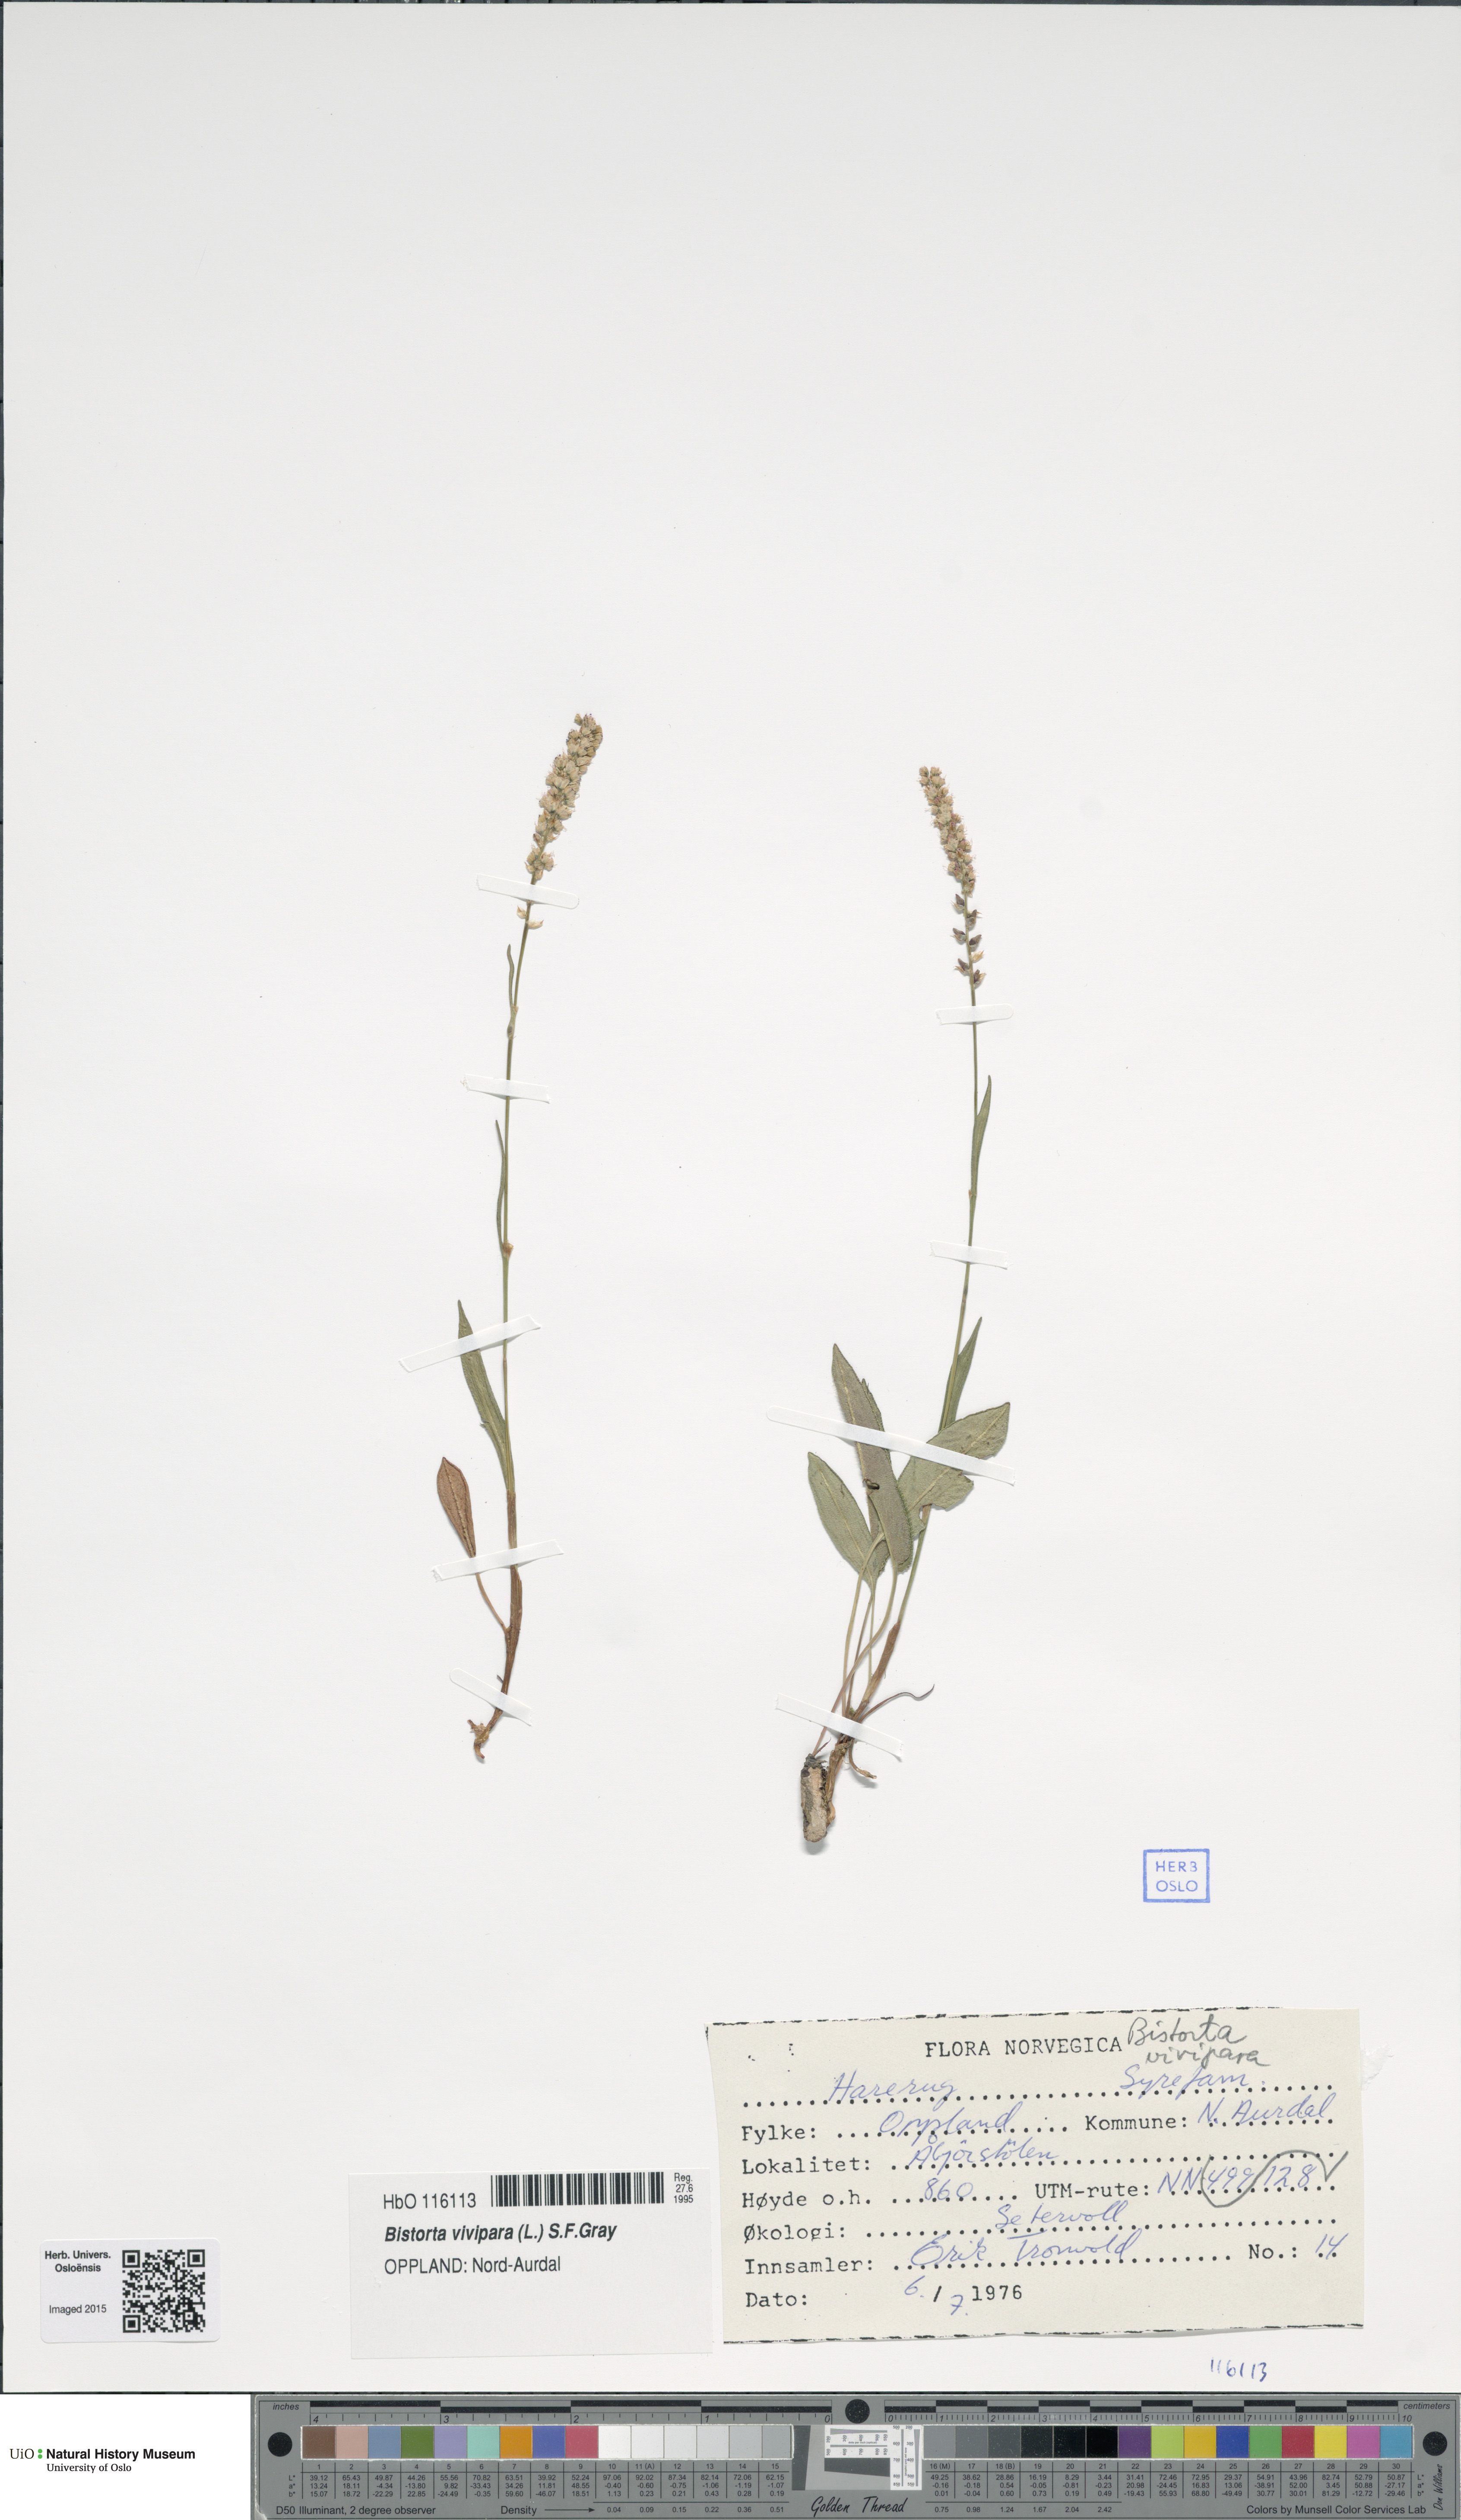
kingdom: Plantae
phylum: Tracheophyta
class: Magnoliopsida
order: Caryophyllales
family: Polygonaceae
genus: Bistorta
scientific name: Bistorta vivipara
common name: Alpine bistort
